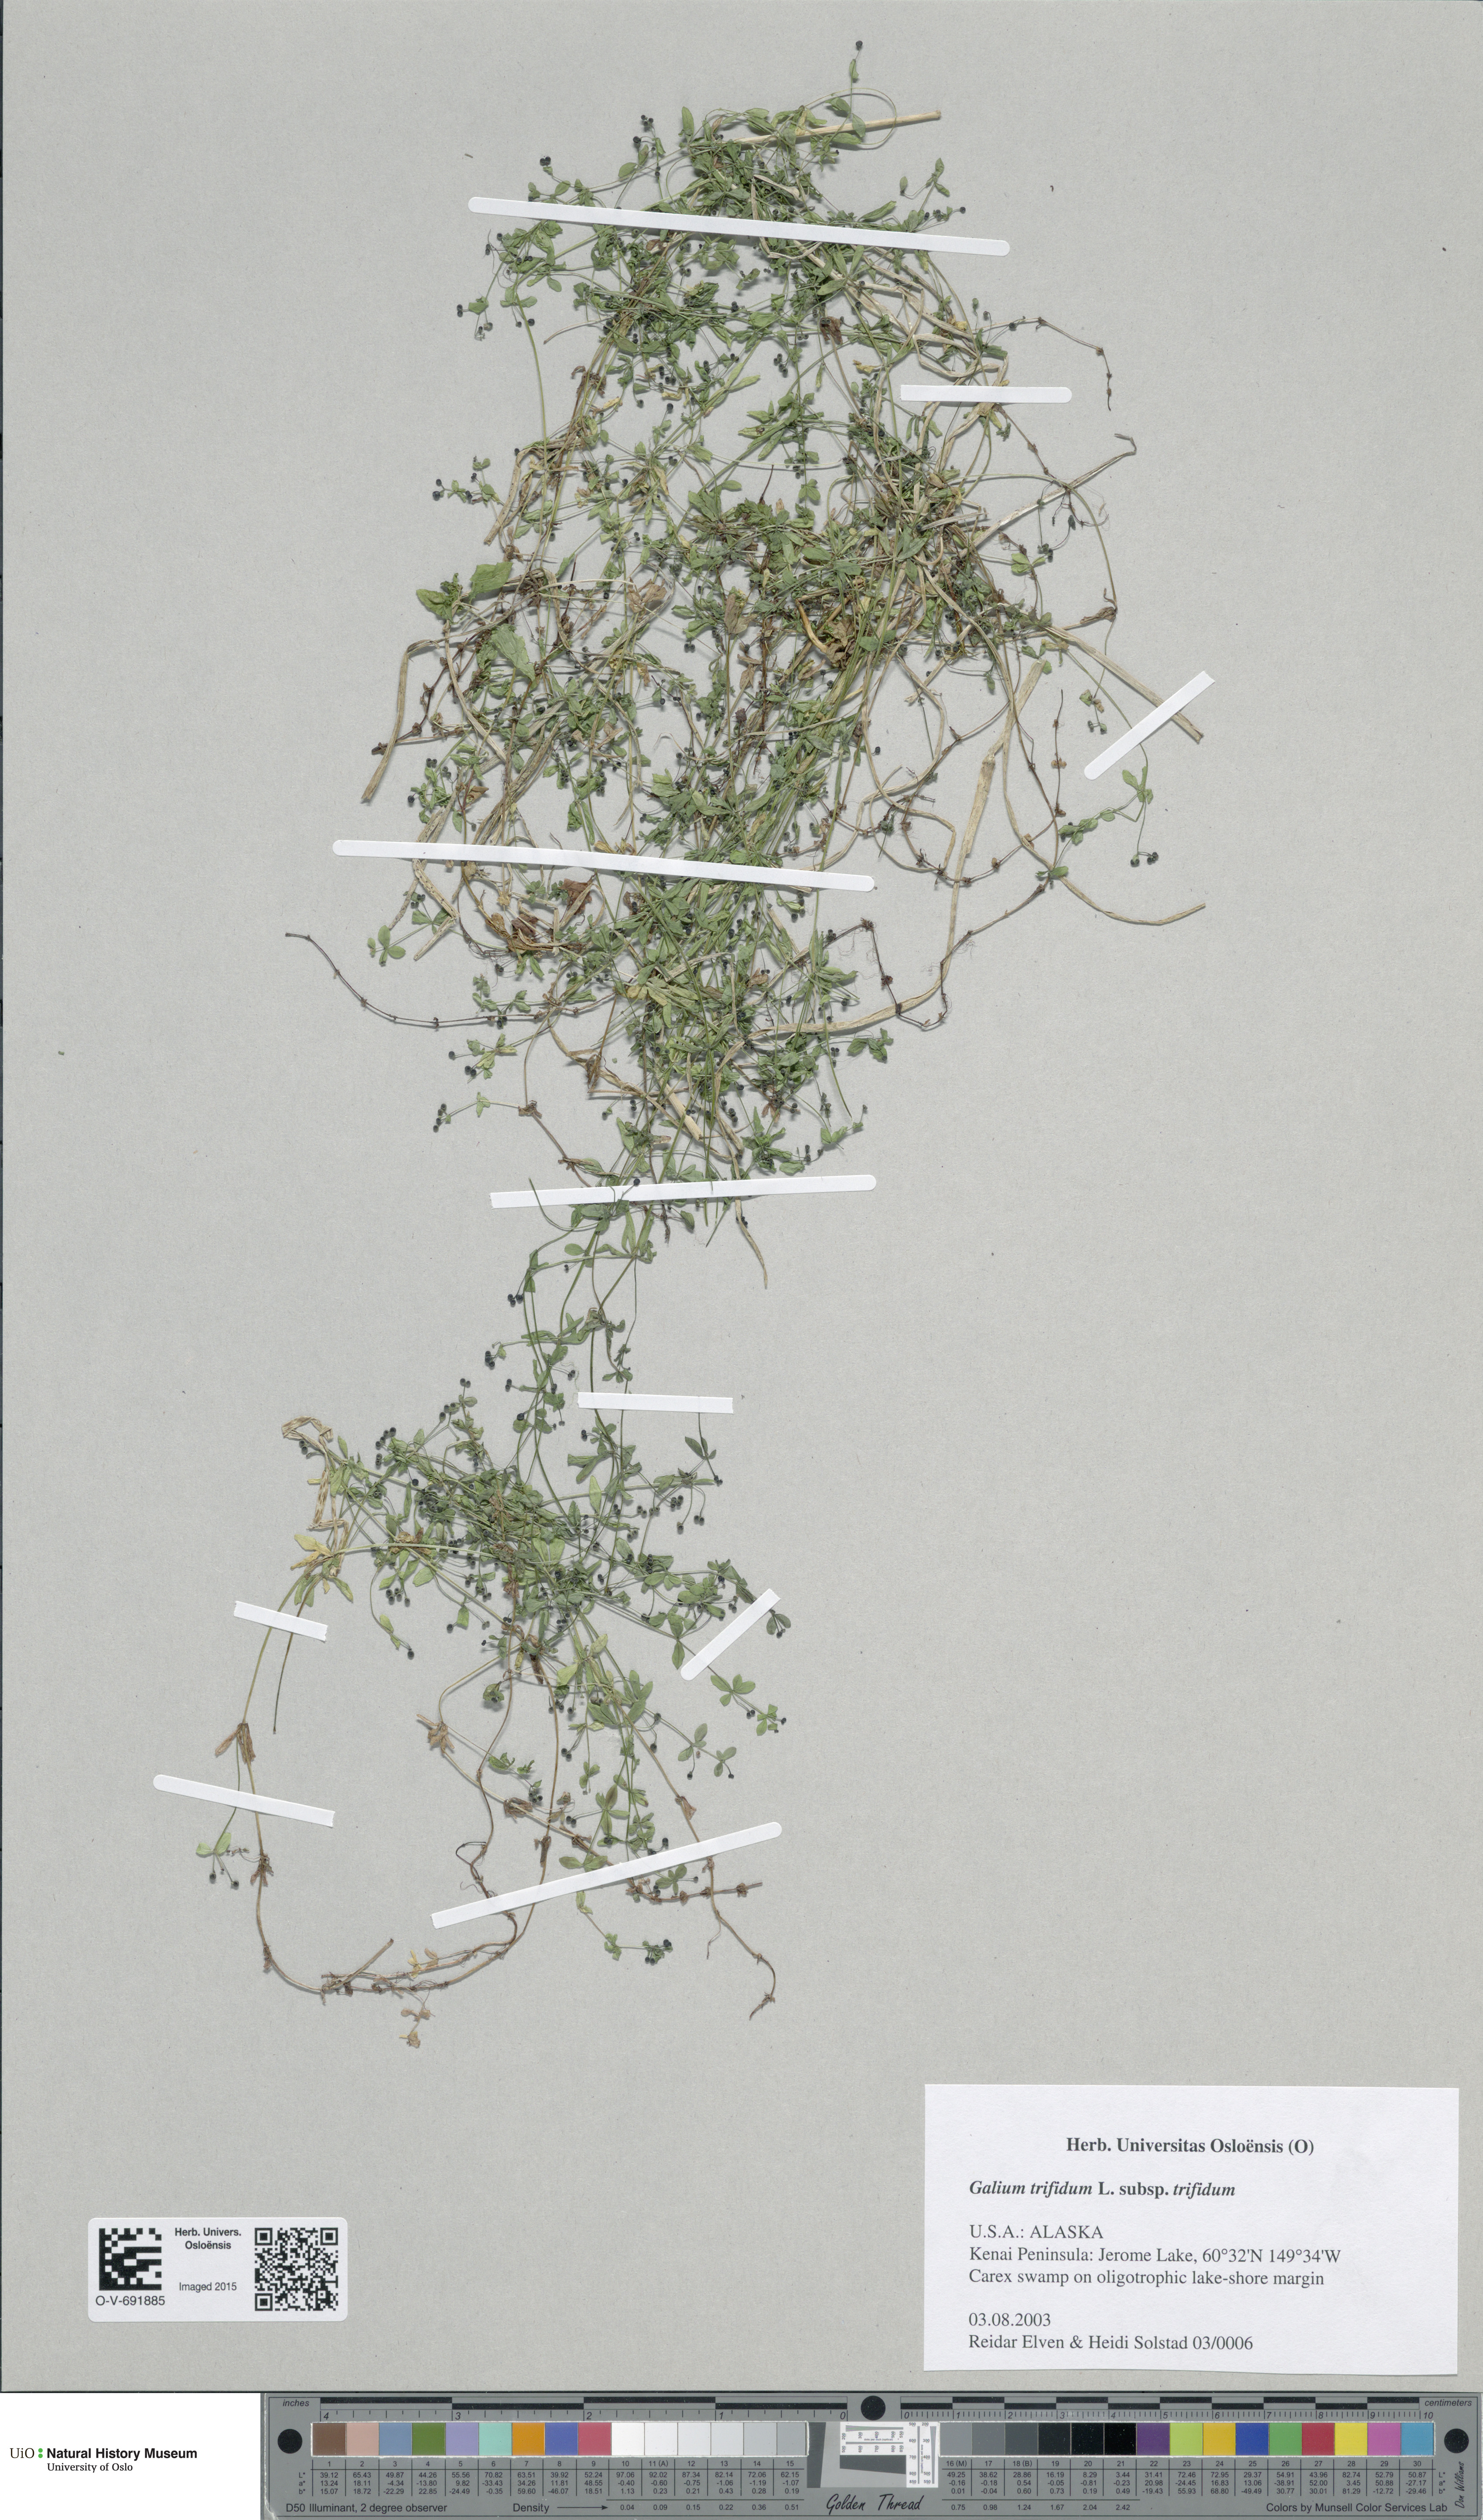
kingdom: Plantae
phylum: Tracheophyta
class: Magnoliopsida
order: Gentianales
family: Rubiaceae
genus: Galium
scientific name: Galium trifidum
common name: Small bedstraw
